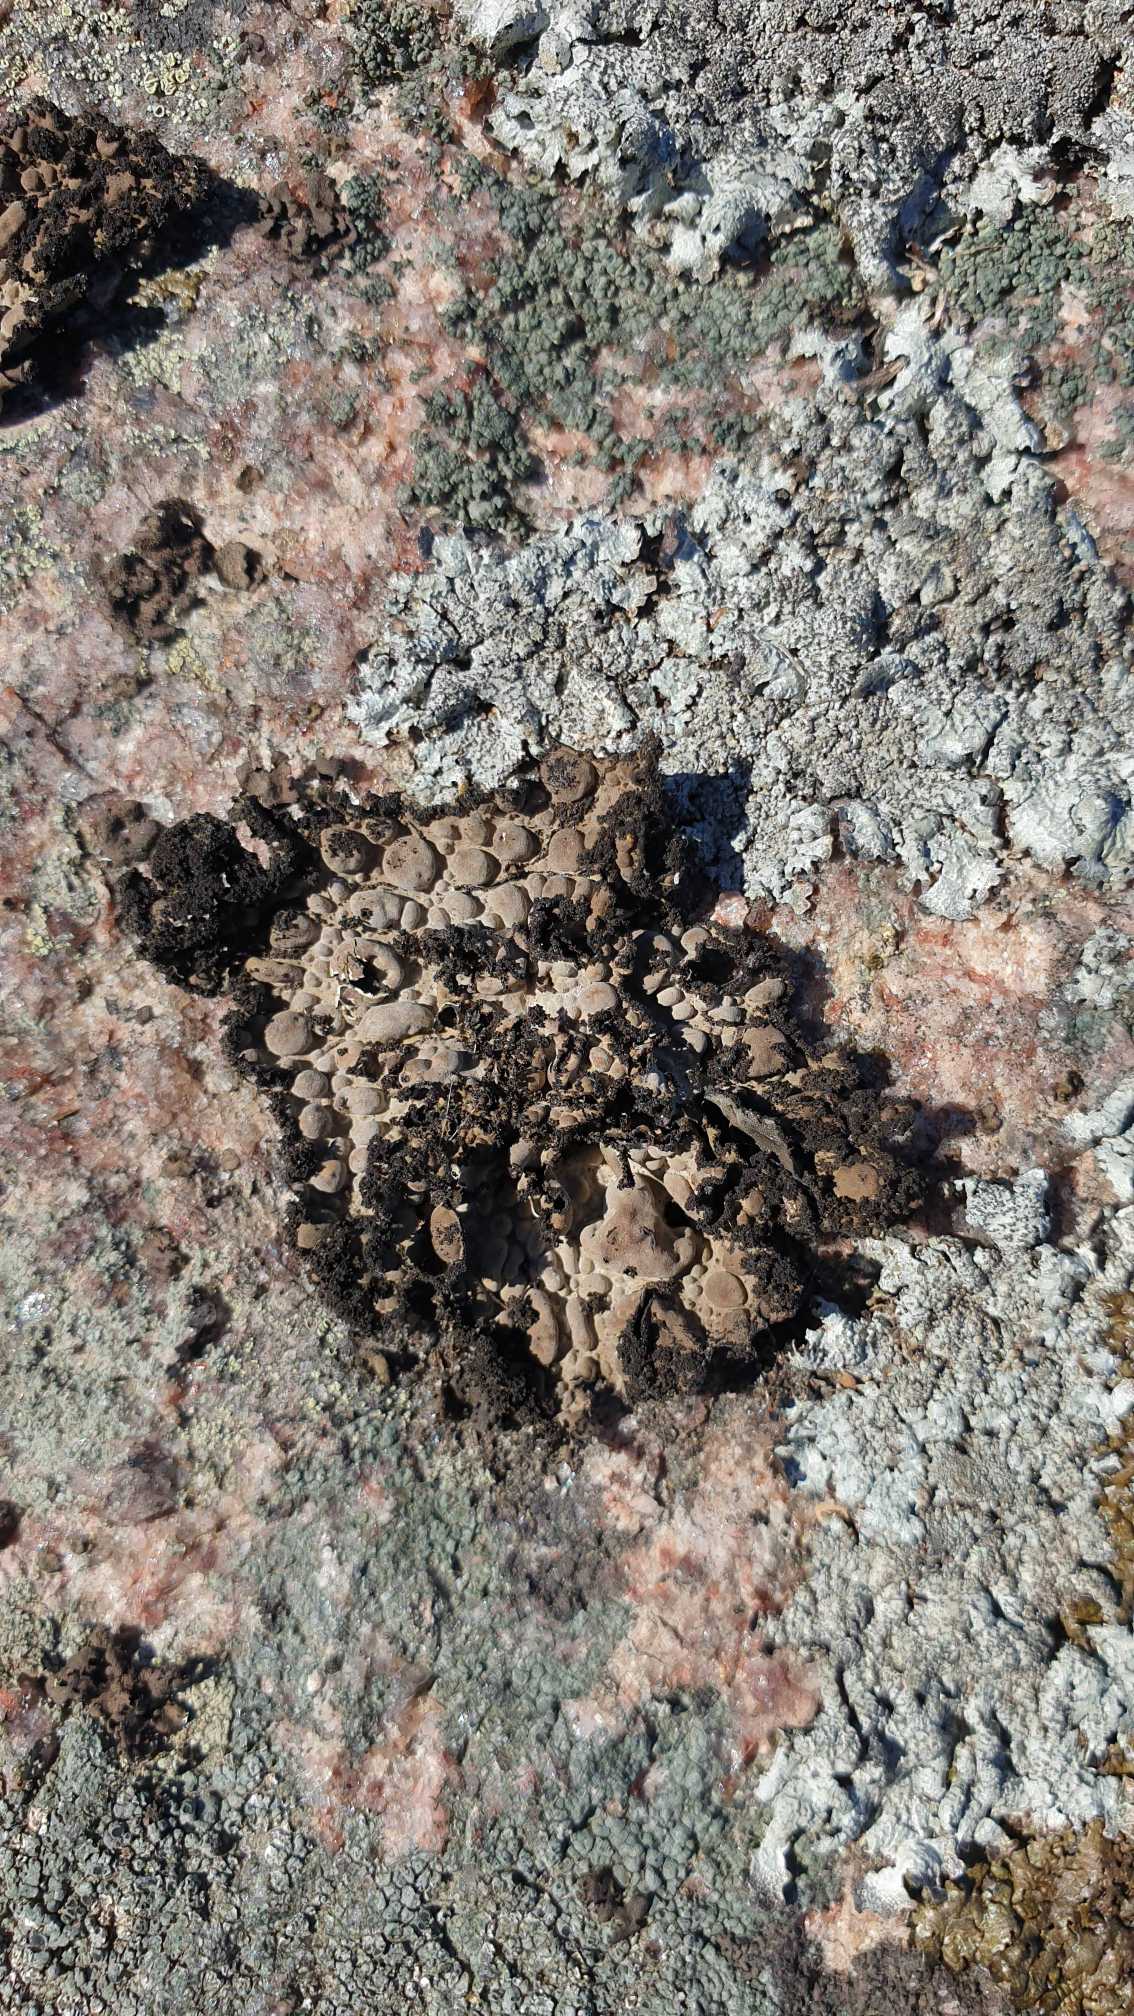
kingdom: Fungi
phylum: Ascomycota
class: Lecanoromycetes
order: Umbilicariales
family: Umbilicariaceae
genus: Lasallia
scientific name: Lasallia pustulata
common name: Buklet navlelav
